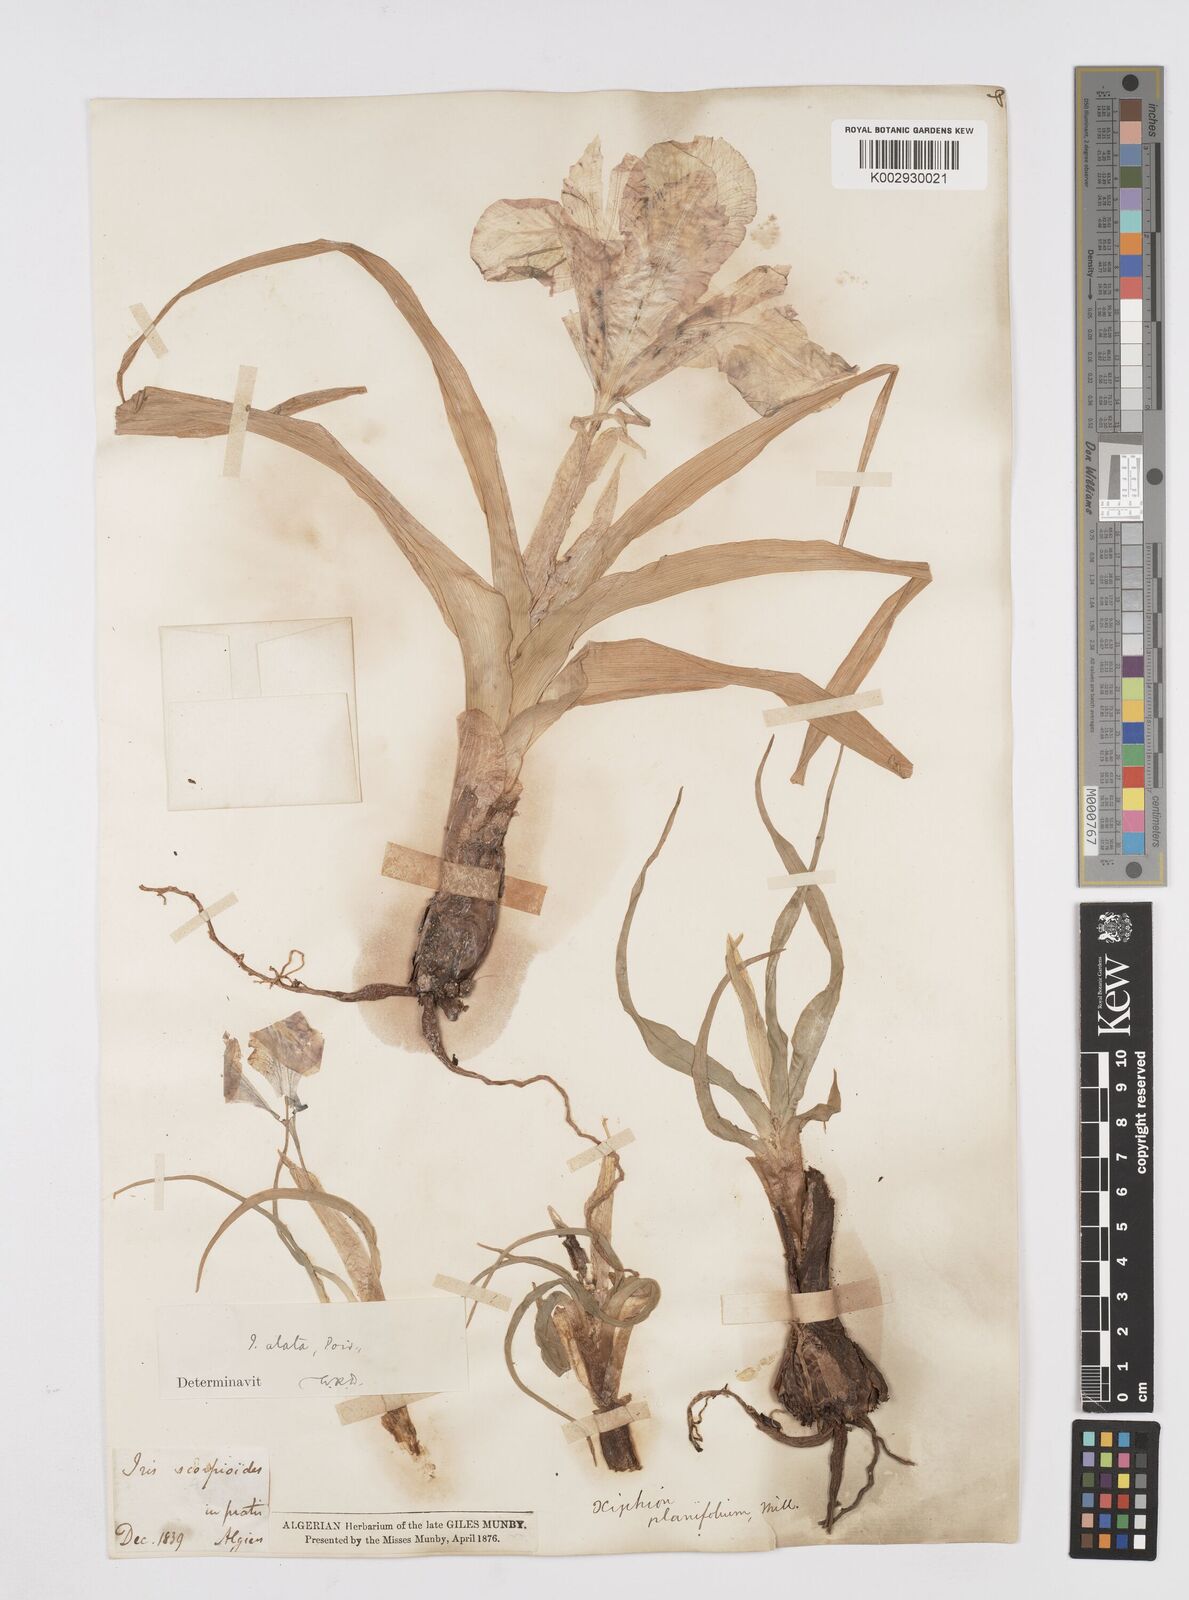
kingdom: Plantae
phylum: Tracheophyta
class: Liliopsida
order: Asparagales
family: Iridaceae
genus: Iris
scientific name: Iris planifolia
